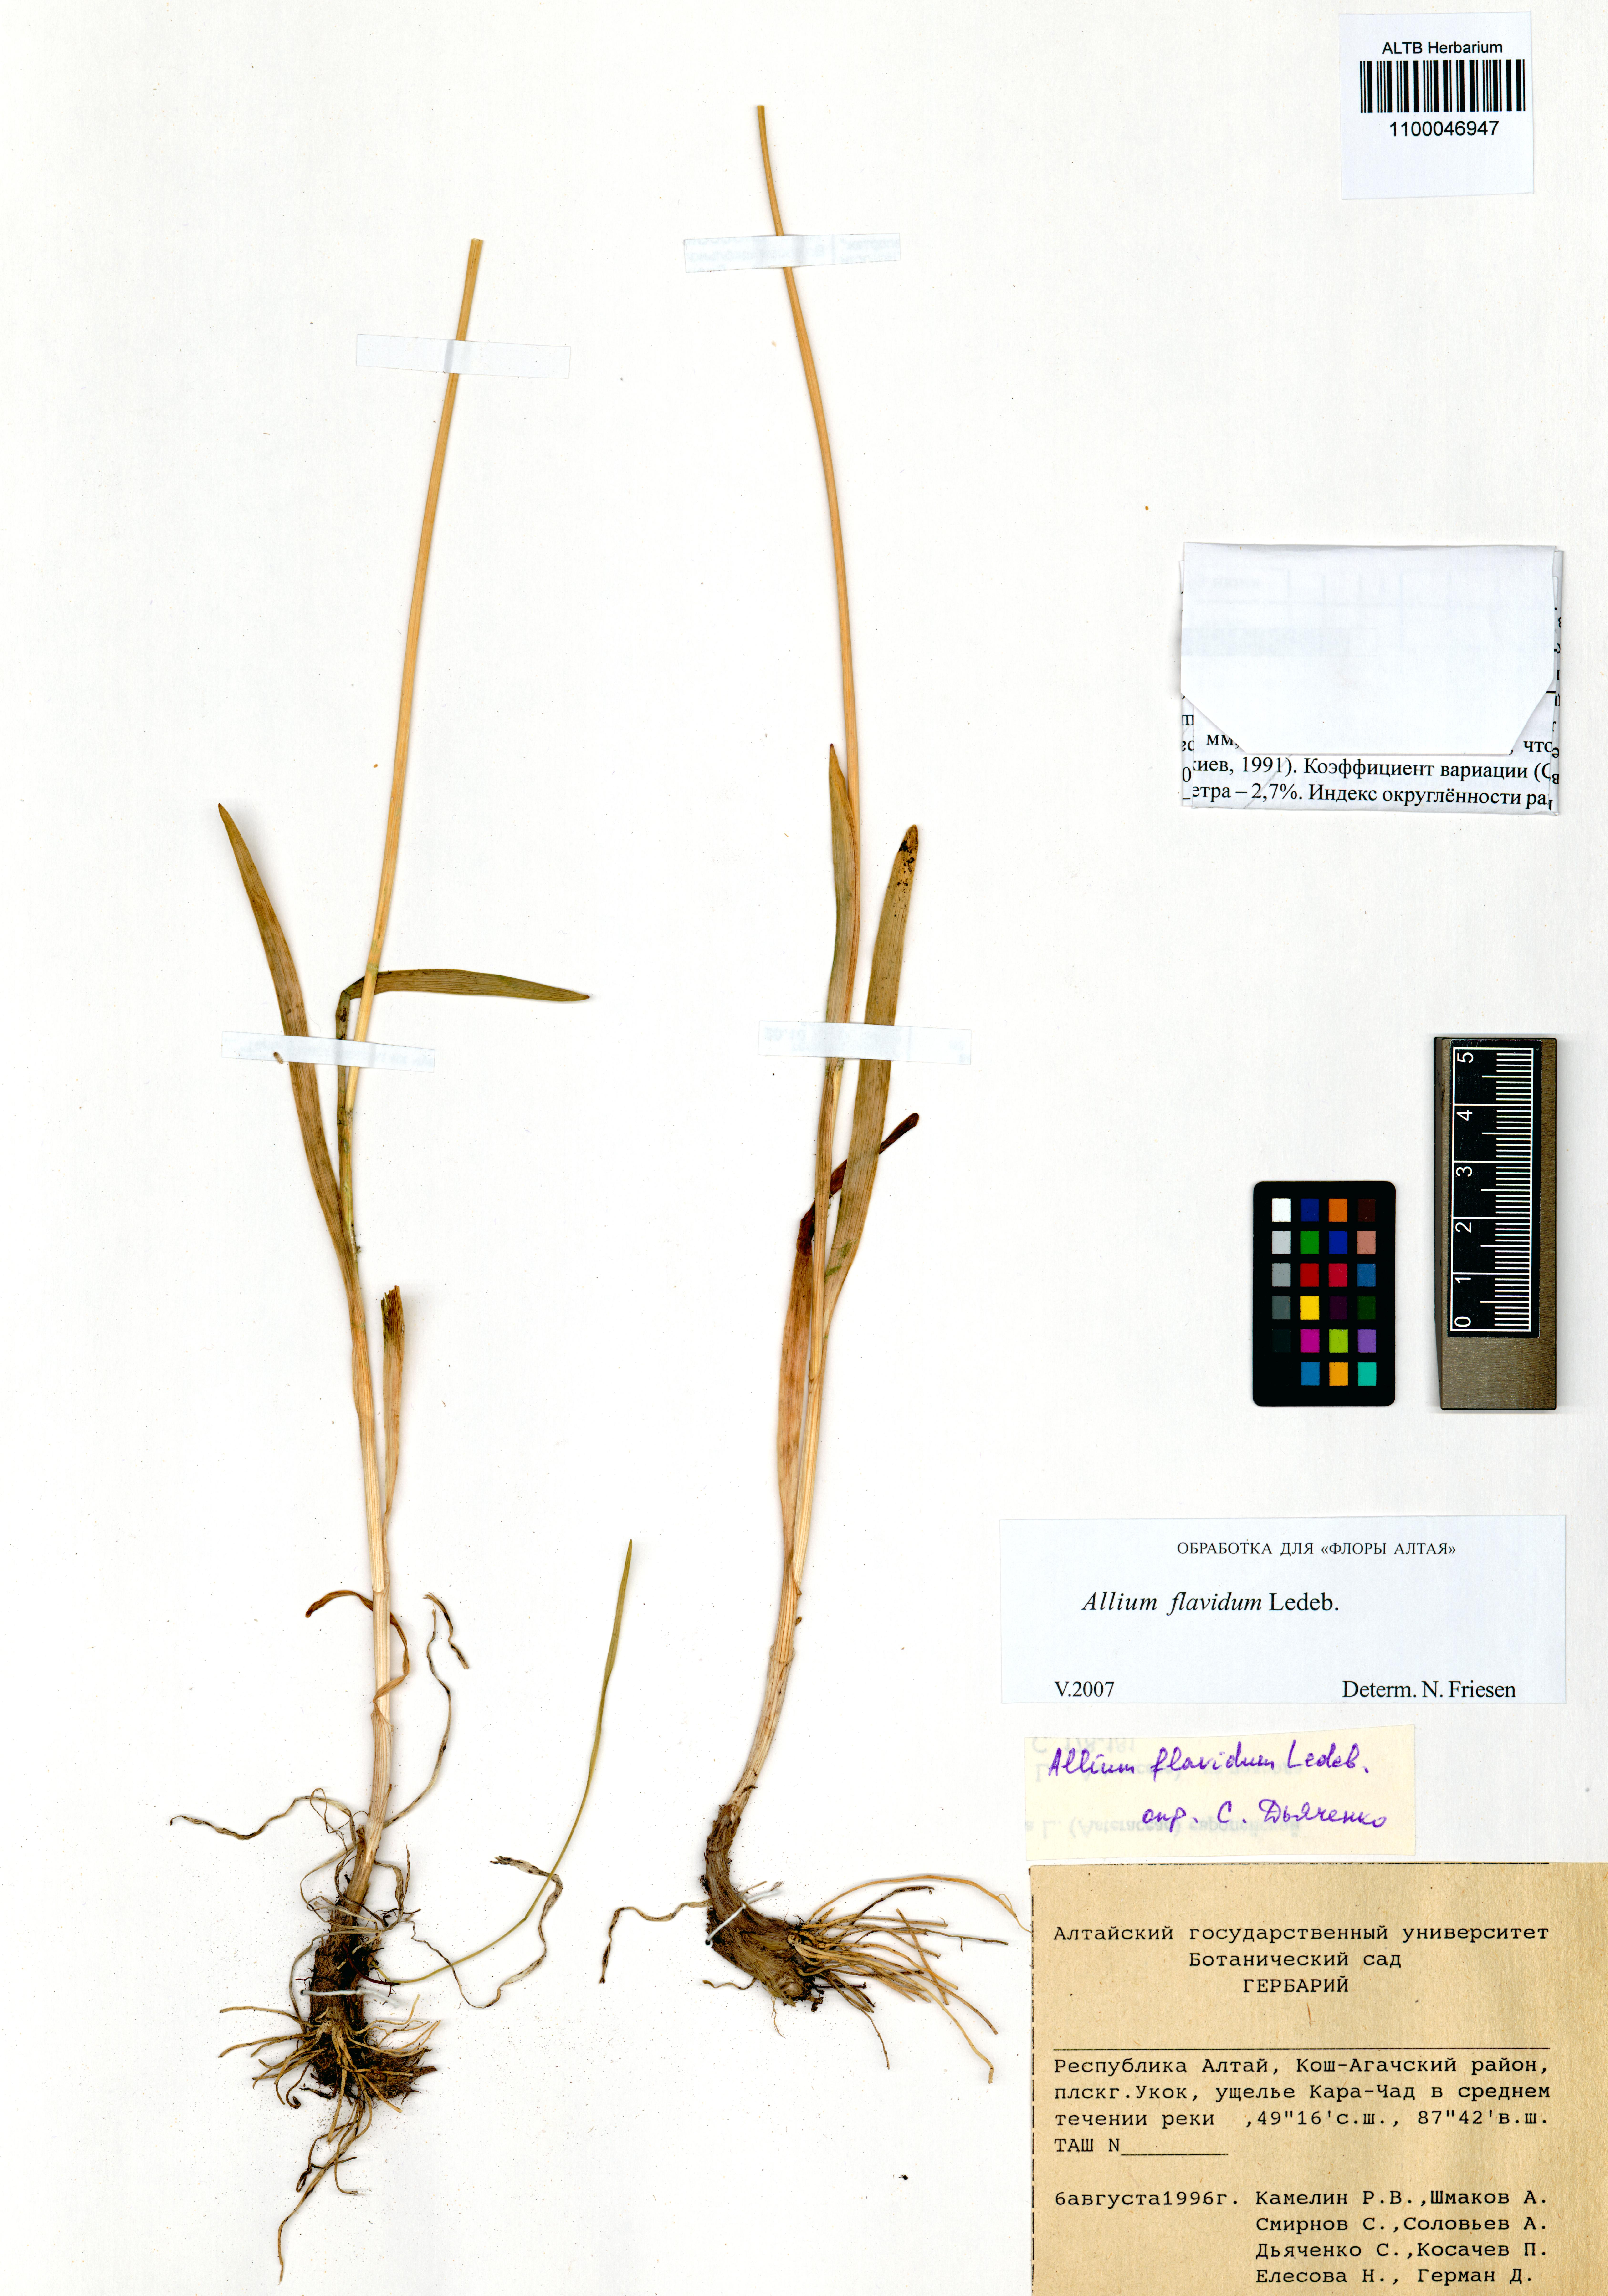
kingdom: Plantae
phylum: Tracheophyta
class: Liliopsida
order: Asparagales
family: Amaryllidaceae
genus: Allium
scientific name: Allium flavidum
